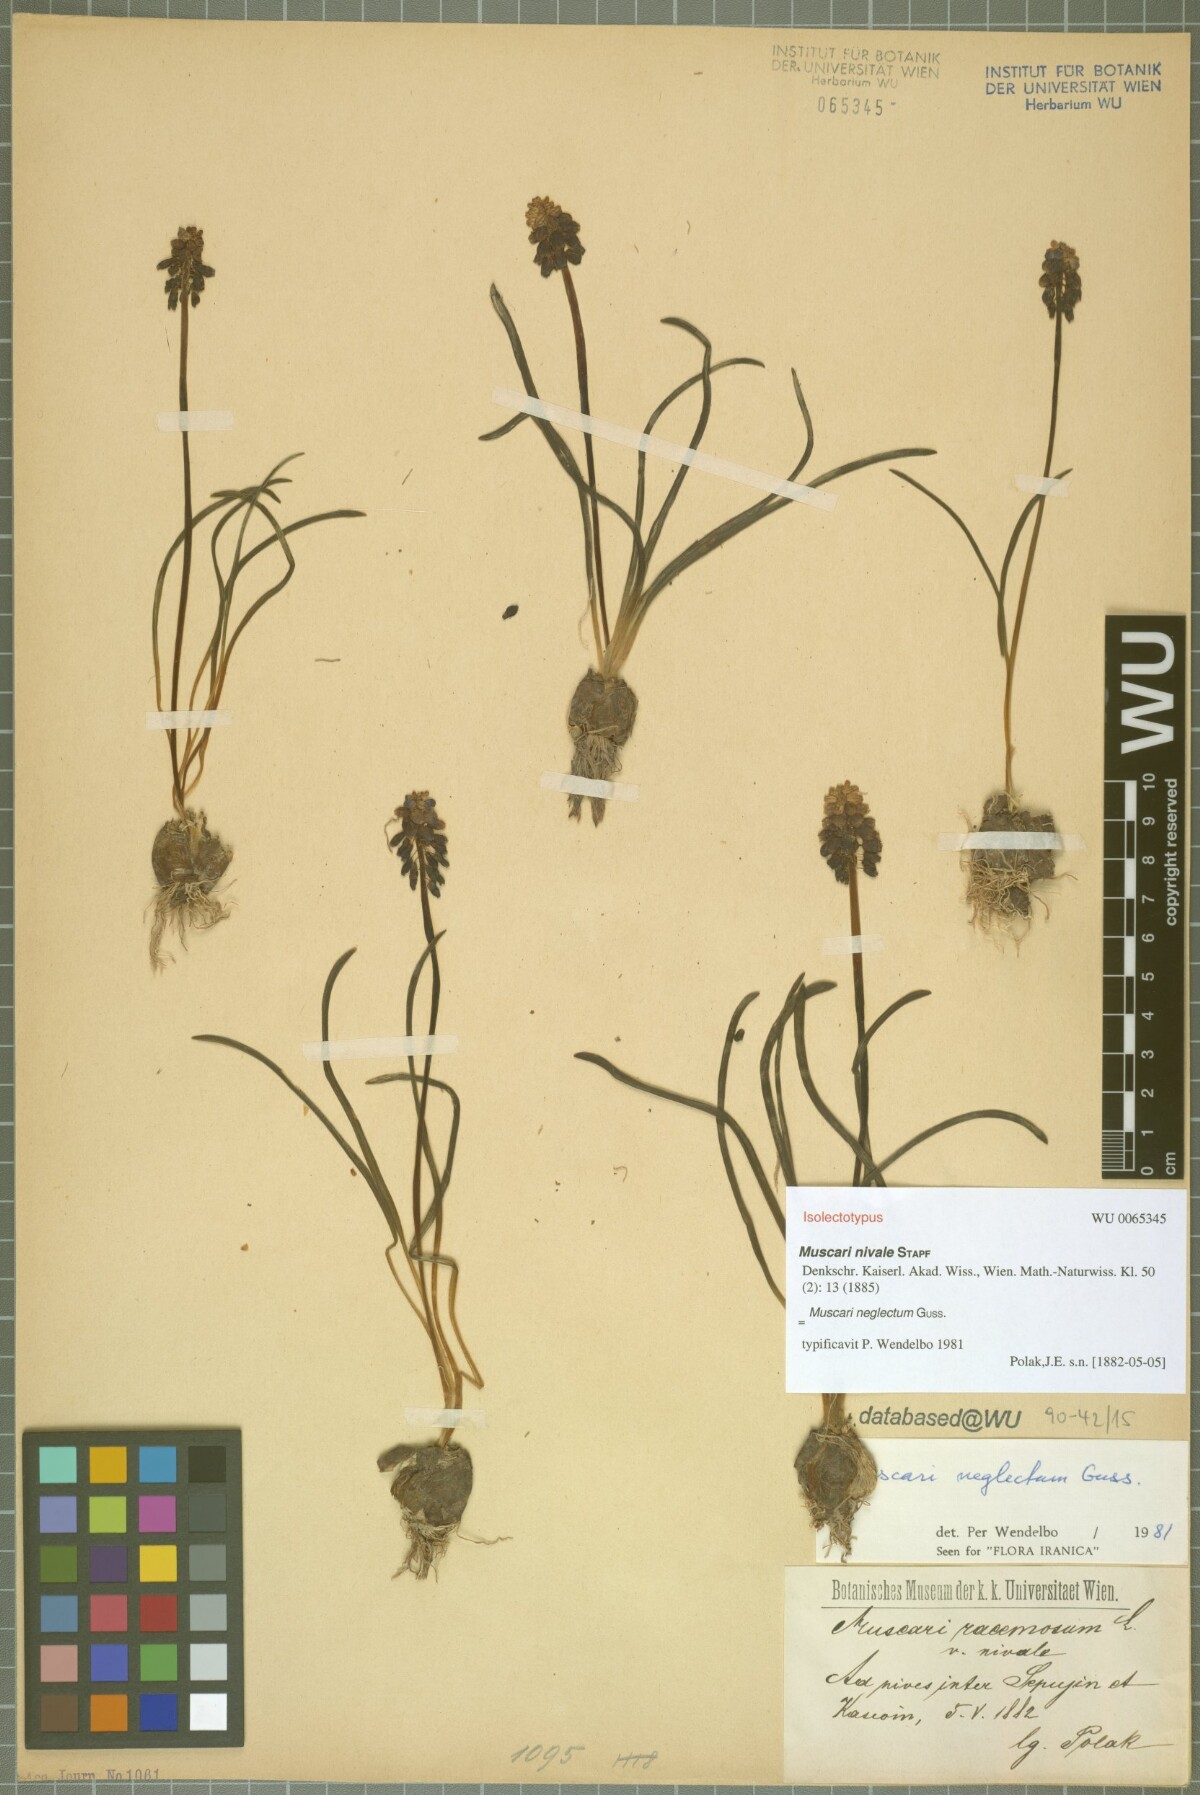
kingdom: Plantae
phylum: Tracheophyta
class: Liliopsida
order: Asparagales
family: Asparagaceae
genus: Muscari
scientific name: Muscari neglectum
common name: Grape-hyacinth
